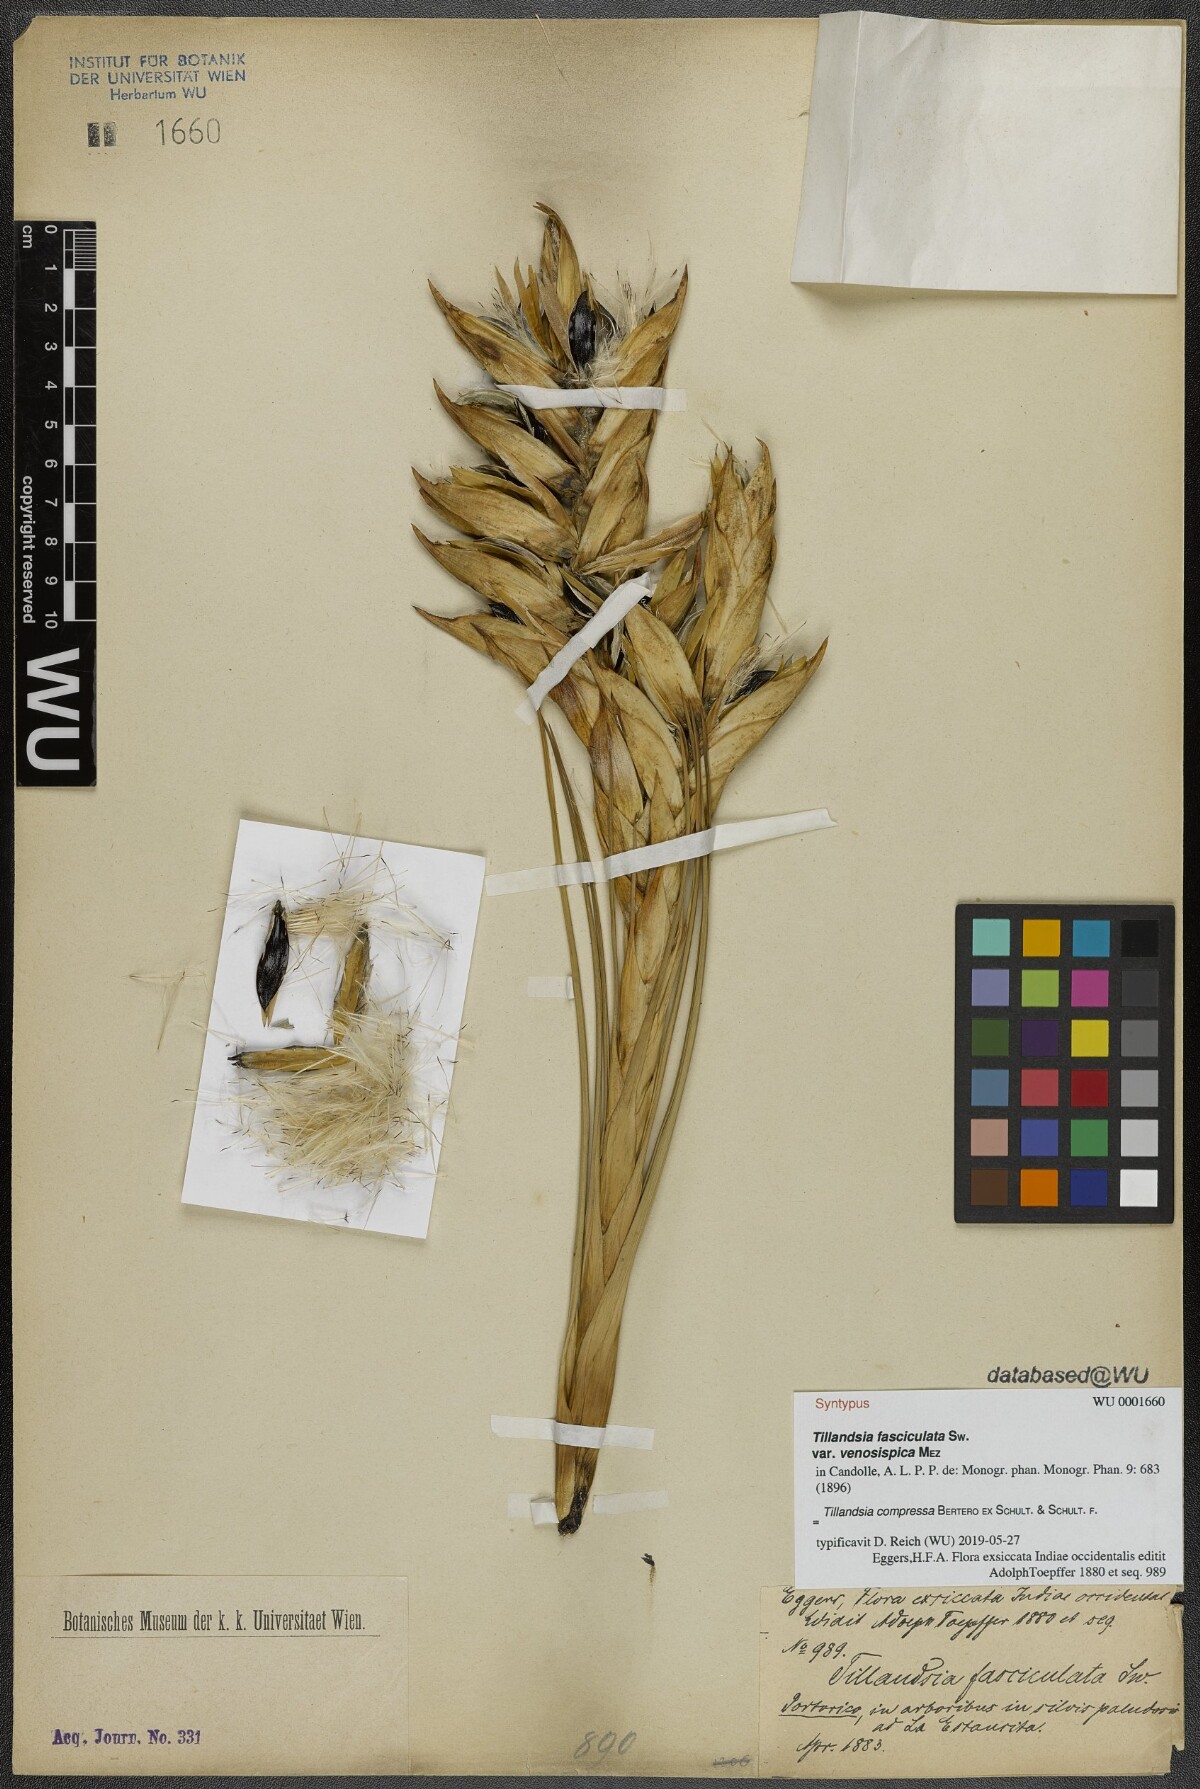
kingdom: Plantae
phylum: Tracheophyta
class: Liliopsida
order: Poales
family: Bromeliaceae
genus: Tillandsia
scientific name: Tillandsia compressa
